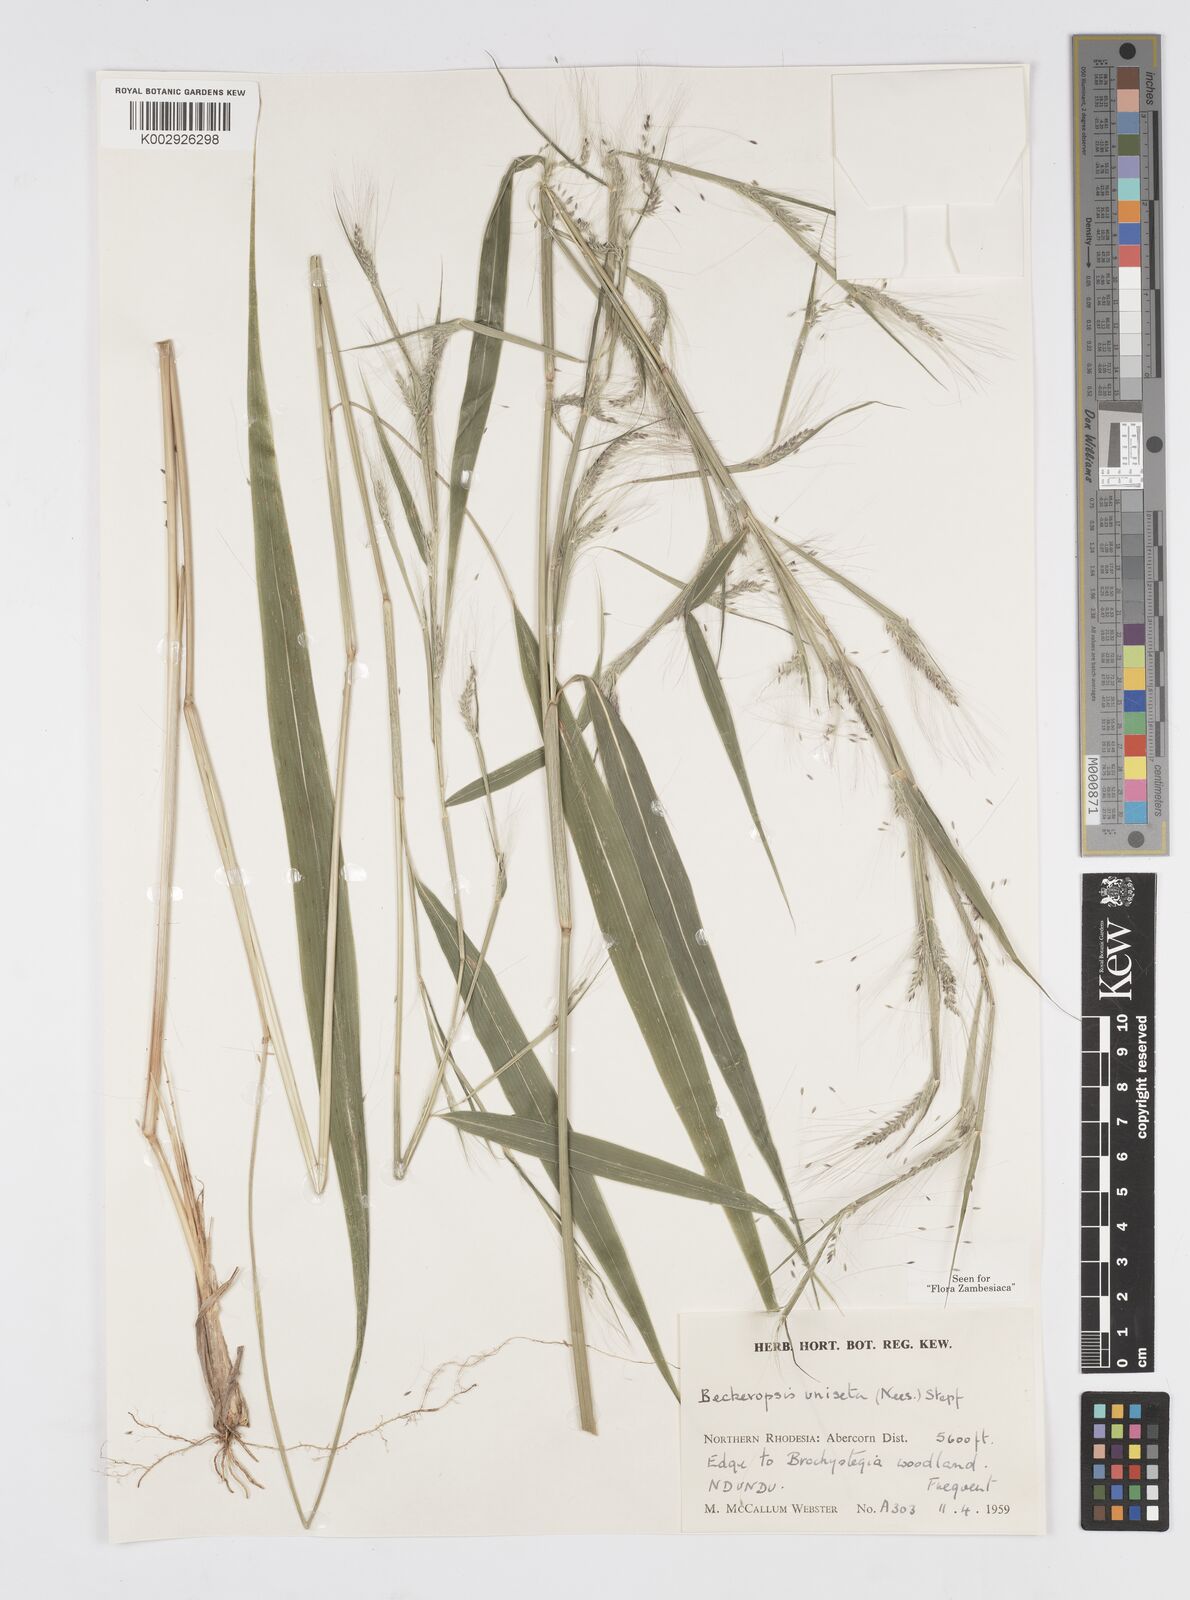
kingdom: Plantae
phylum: Tracheophyta
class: Liliopsida
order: Poales
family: Poaceae
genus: Cenchrus
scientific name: Cenchrus unisetus
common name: Natal grass
